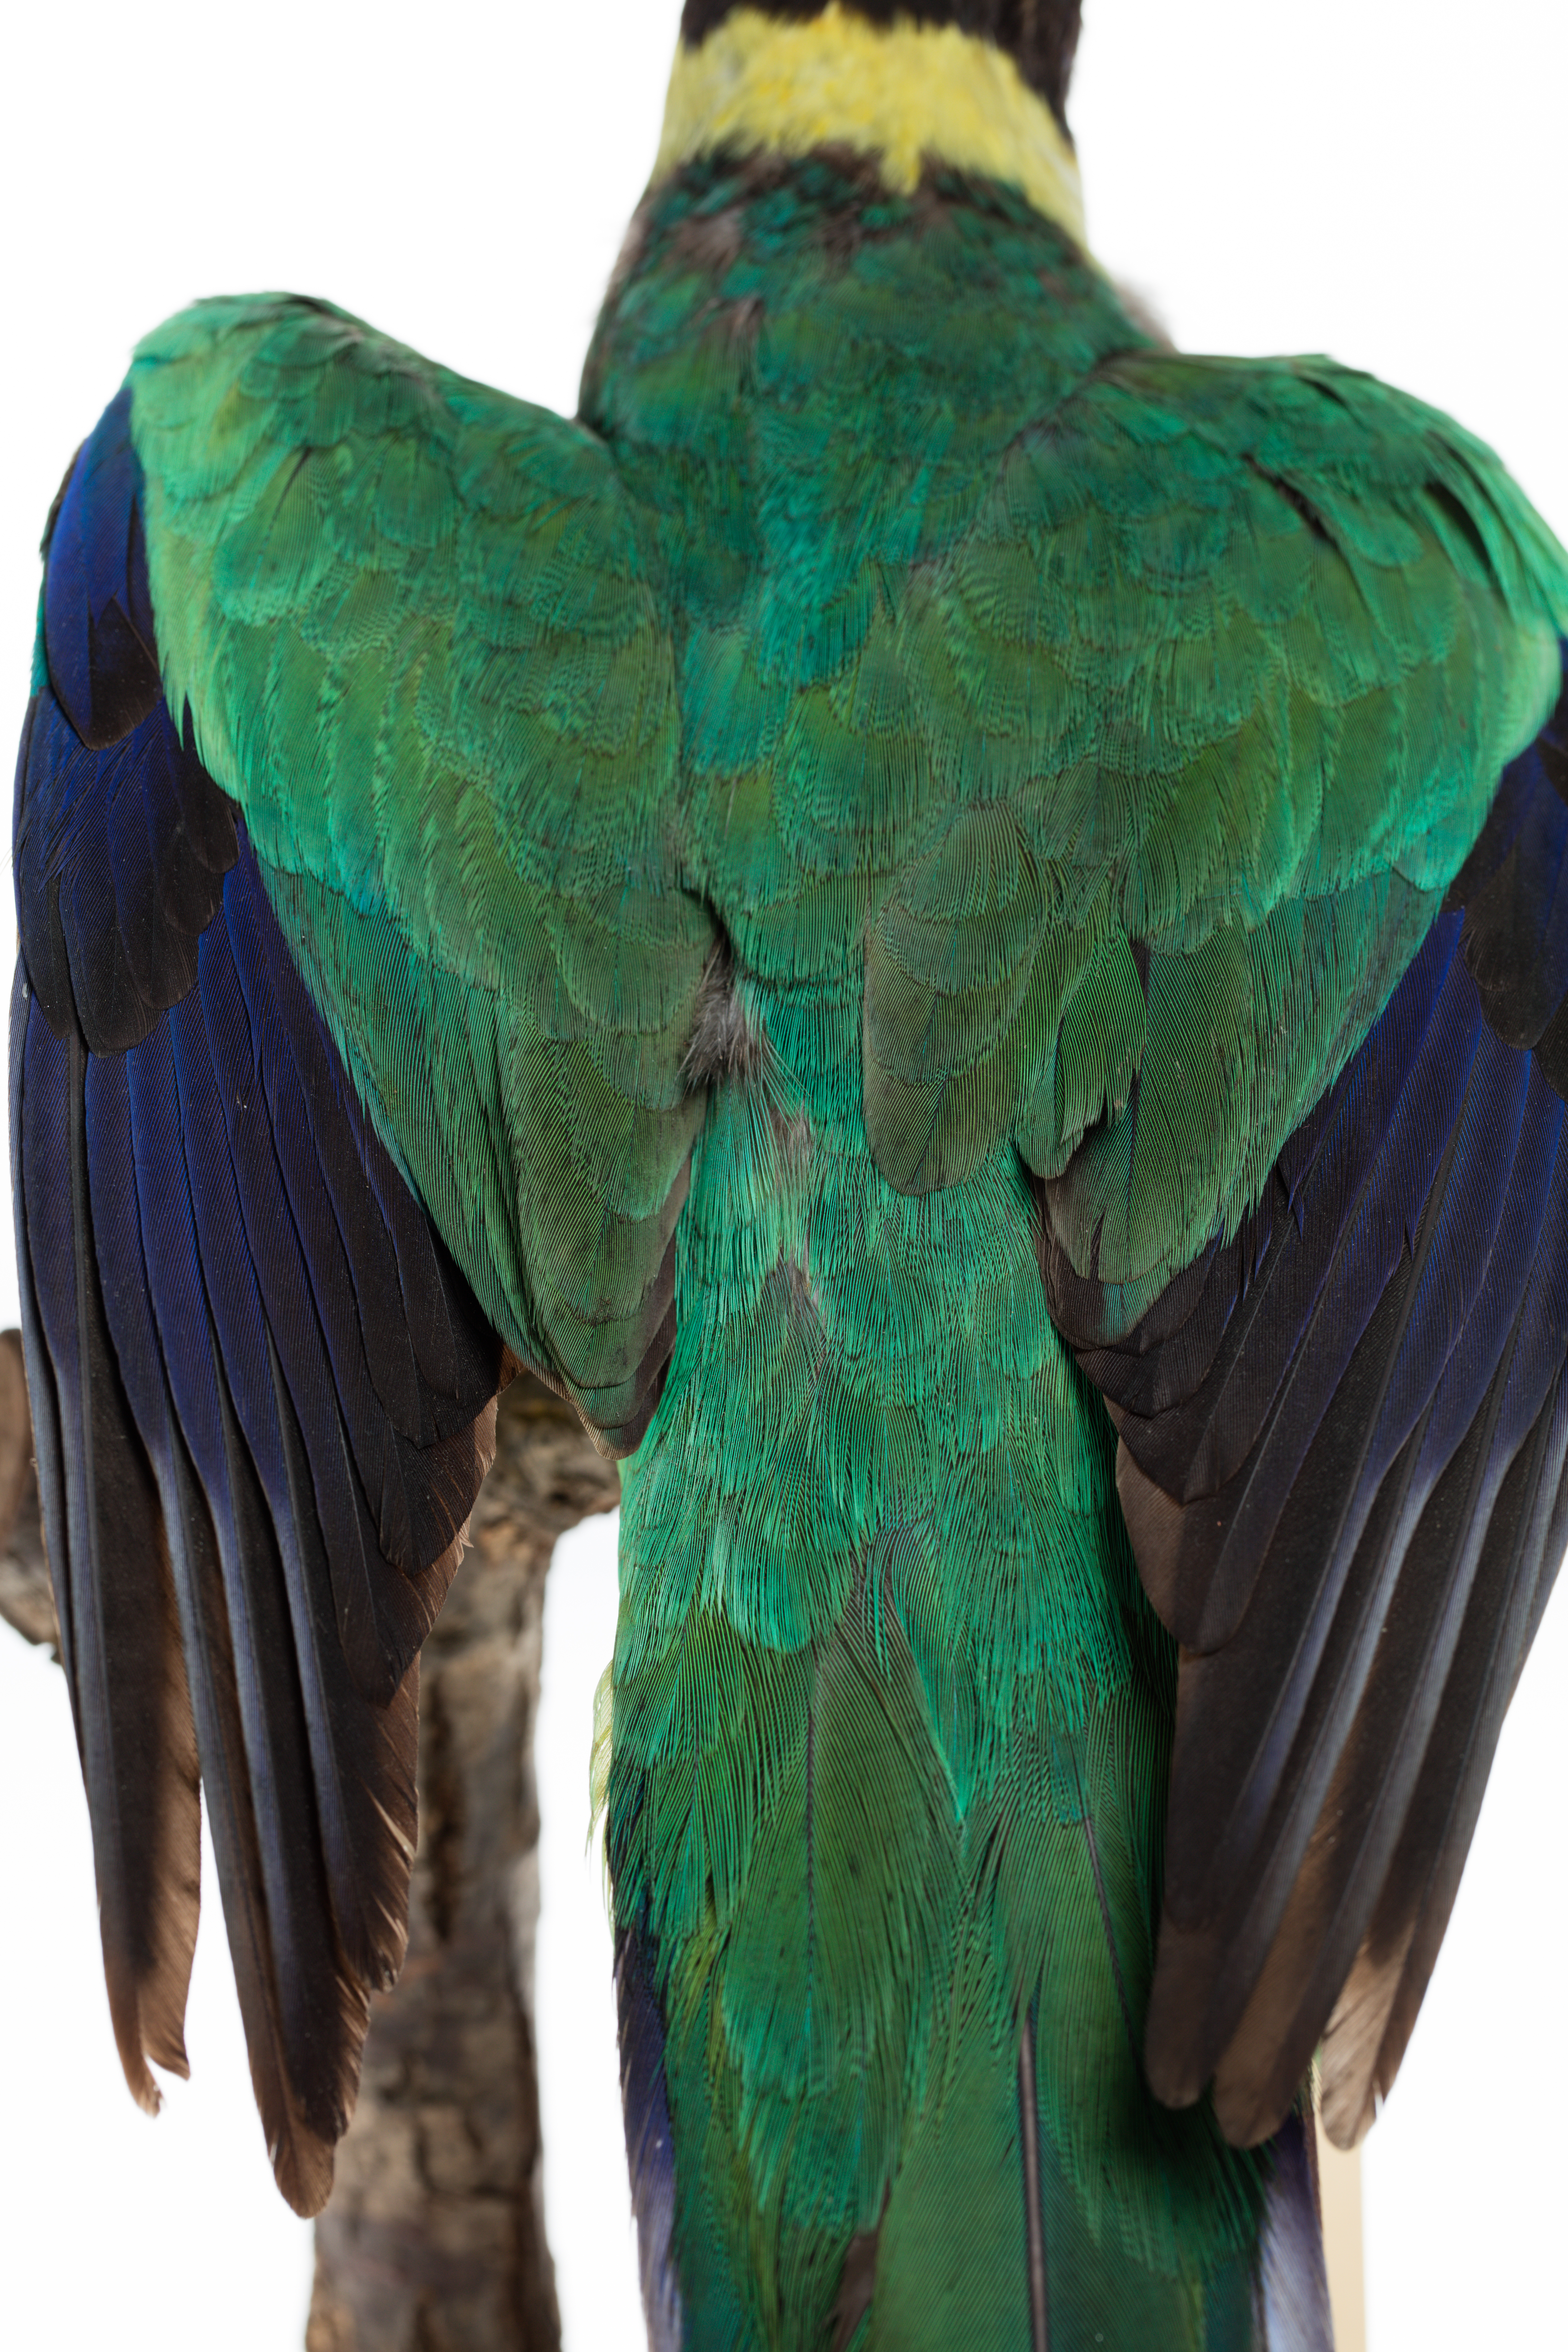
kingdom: Animalia
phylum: Chordata
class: Aves
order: Psittaciformes
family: Psittacidae
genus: Barnardius
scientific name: Barnardius zonarius
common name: Australian ringneck
